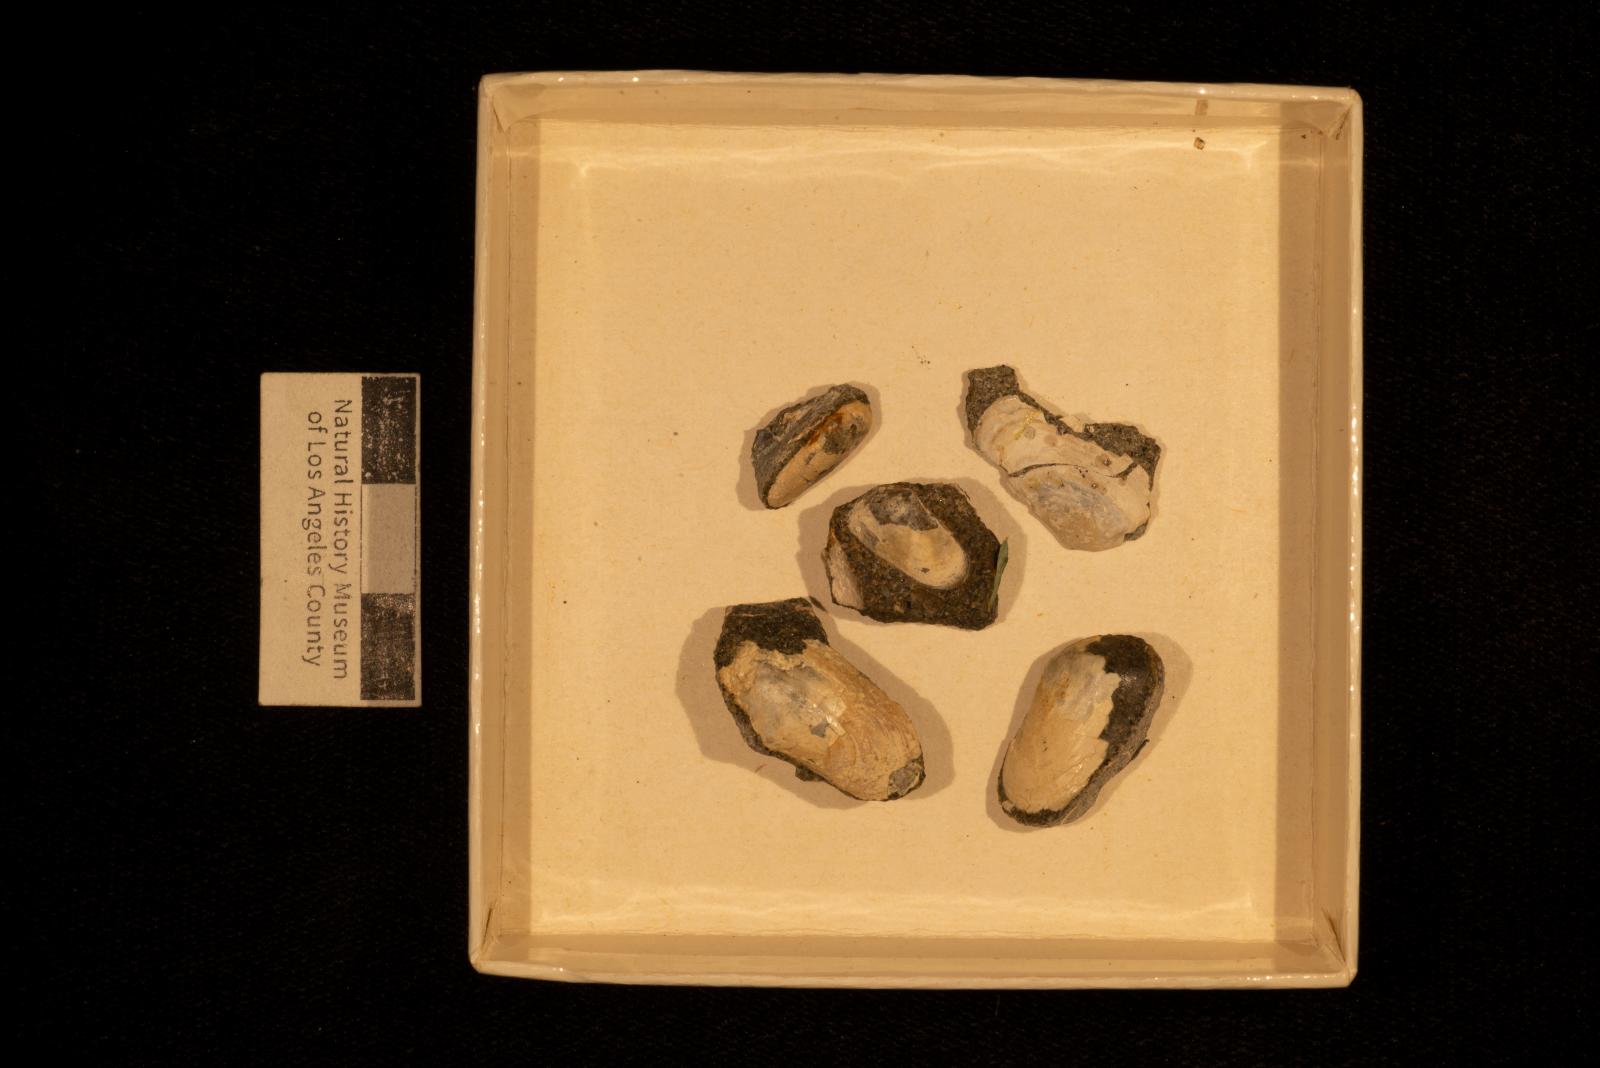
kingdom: Animalia
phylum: Mollusca
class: Bivalvia
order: Venerida
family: Mesodesmatidae
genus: Califadesma
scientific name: Califadesma elafium
